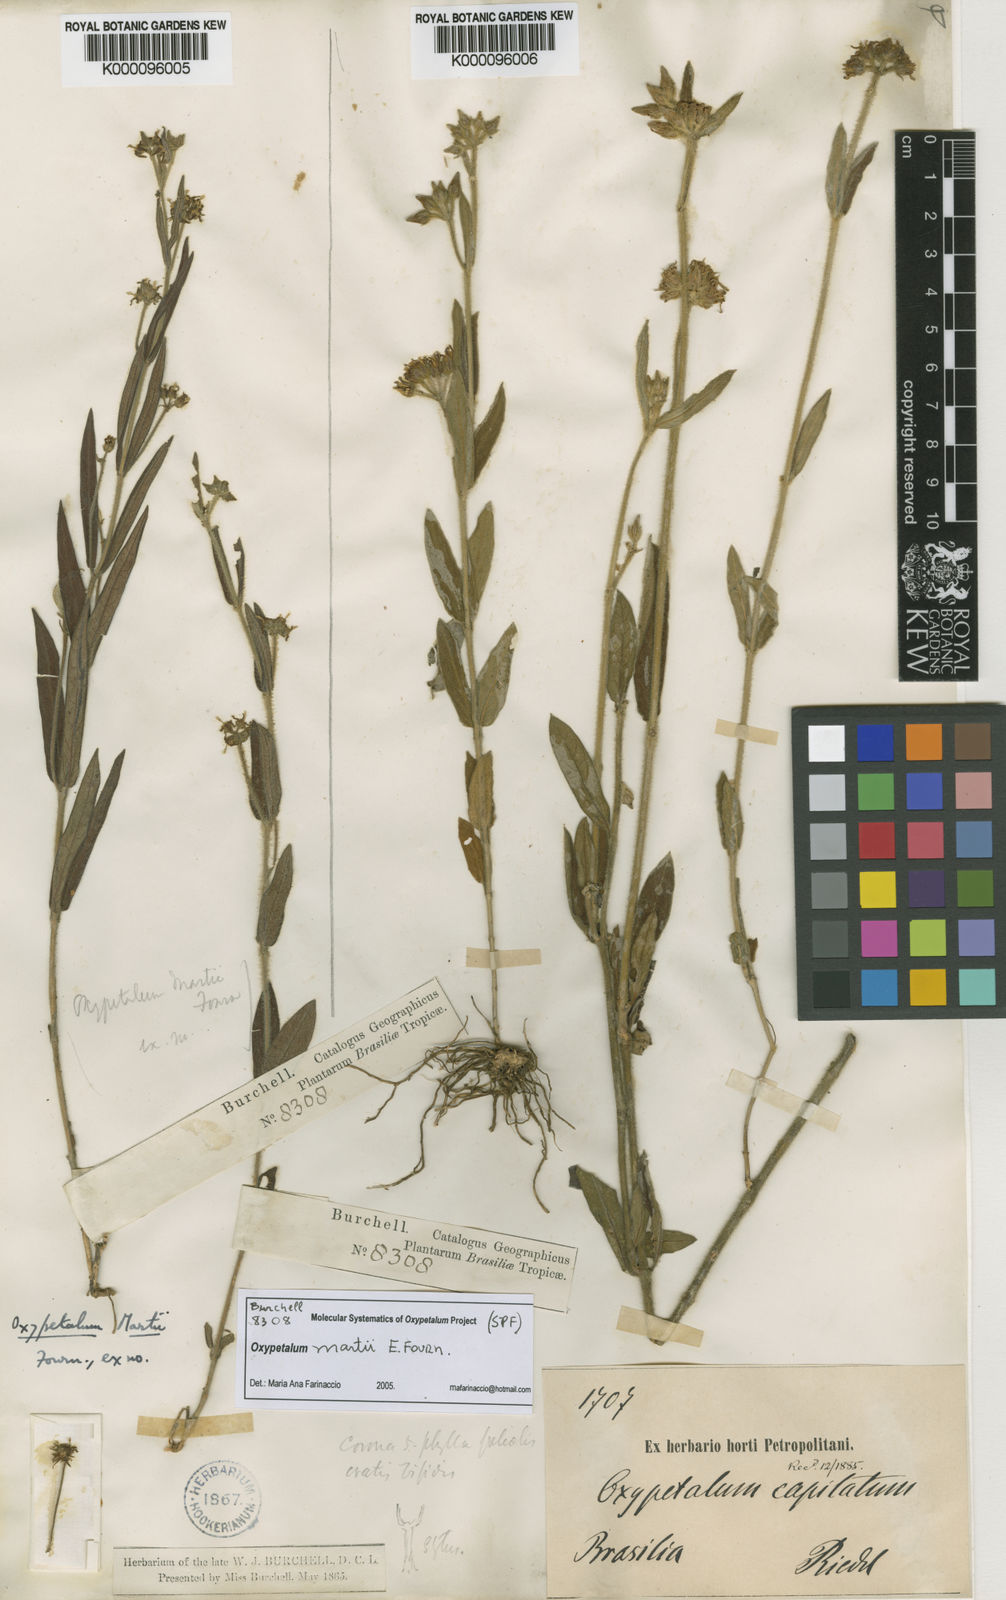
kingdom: Plantae
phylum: Tracheophyta
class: Magnoliopsida
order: Gentianales
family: Apocynaceae
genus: Oxypetalum
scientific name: Oxypetalum martii
